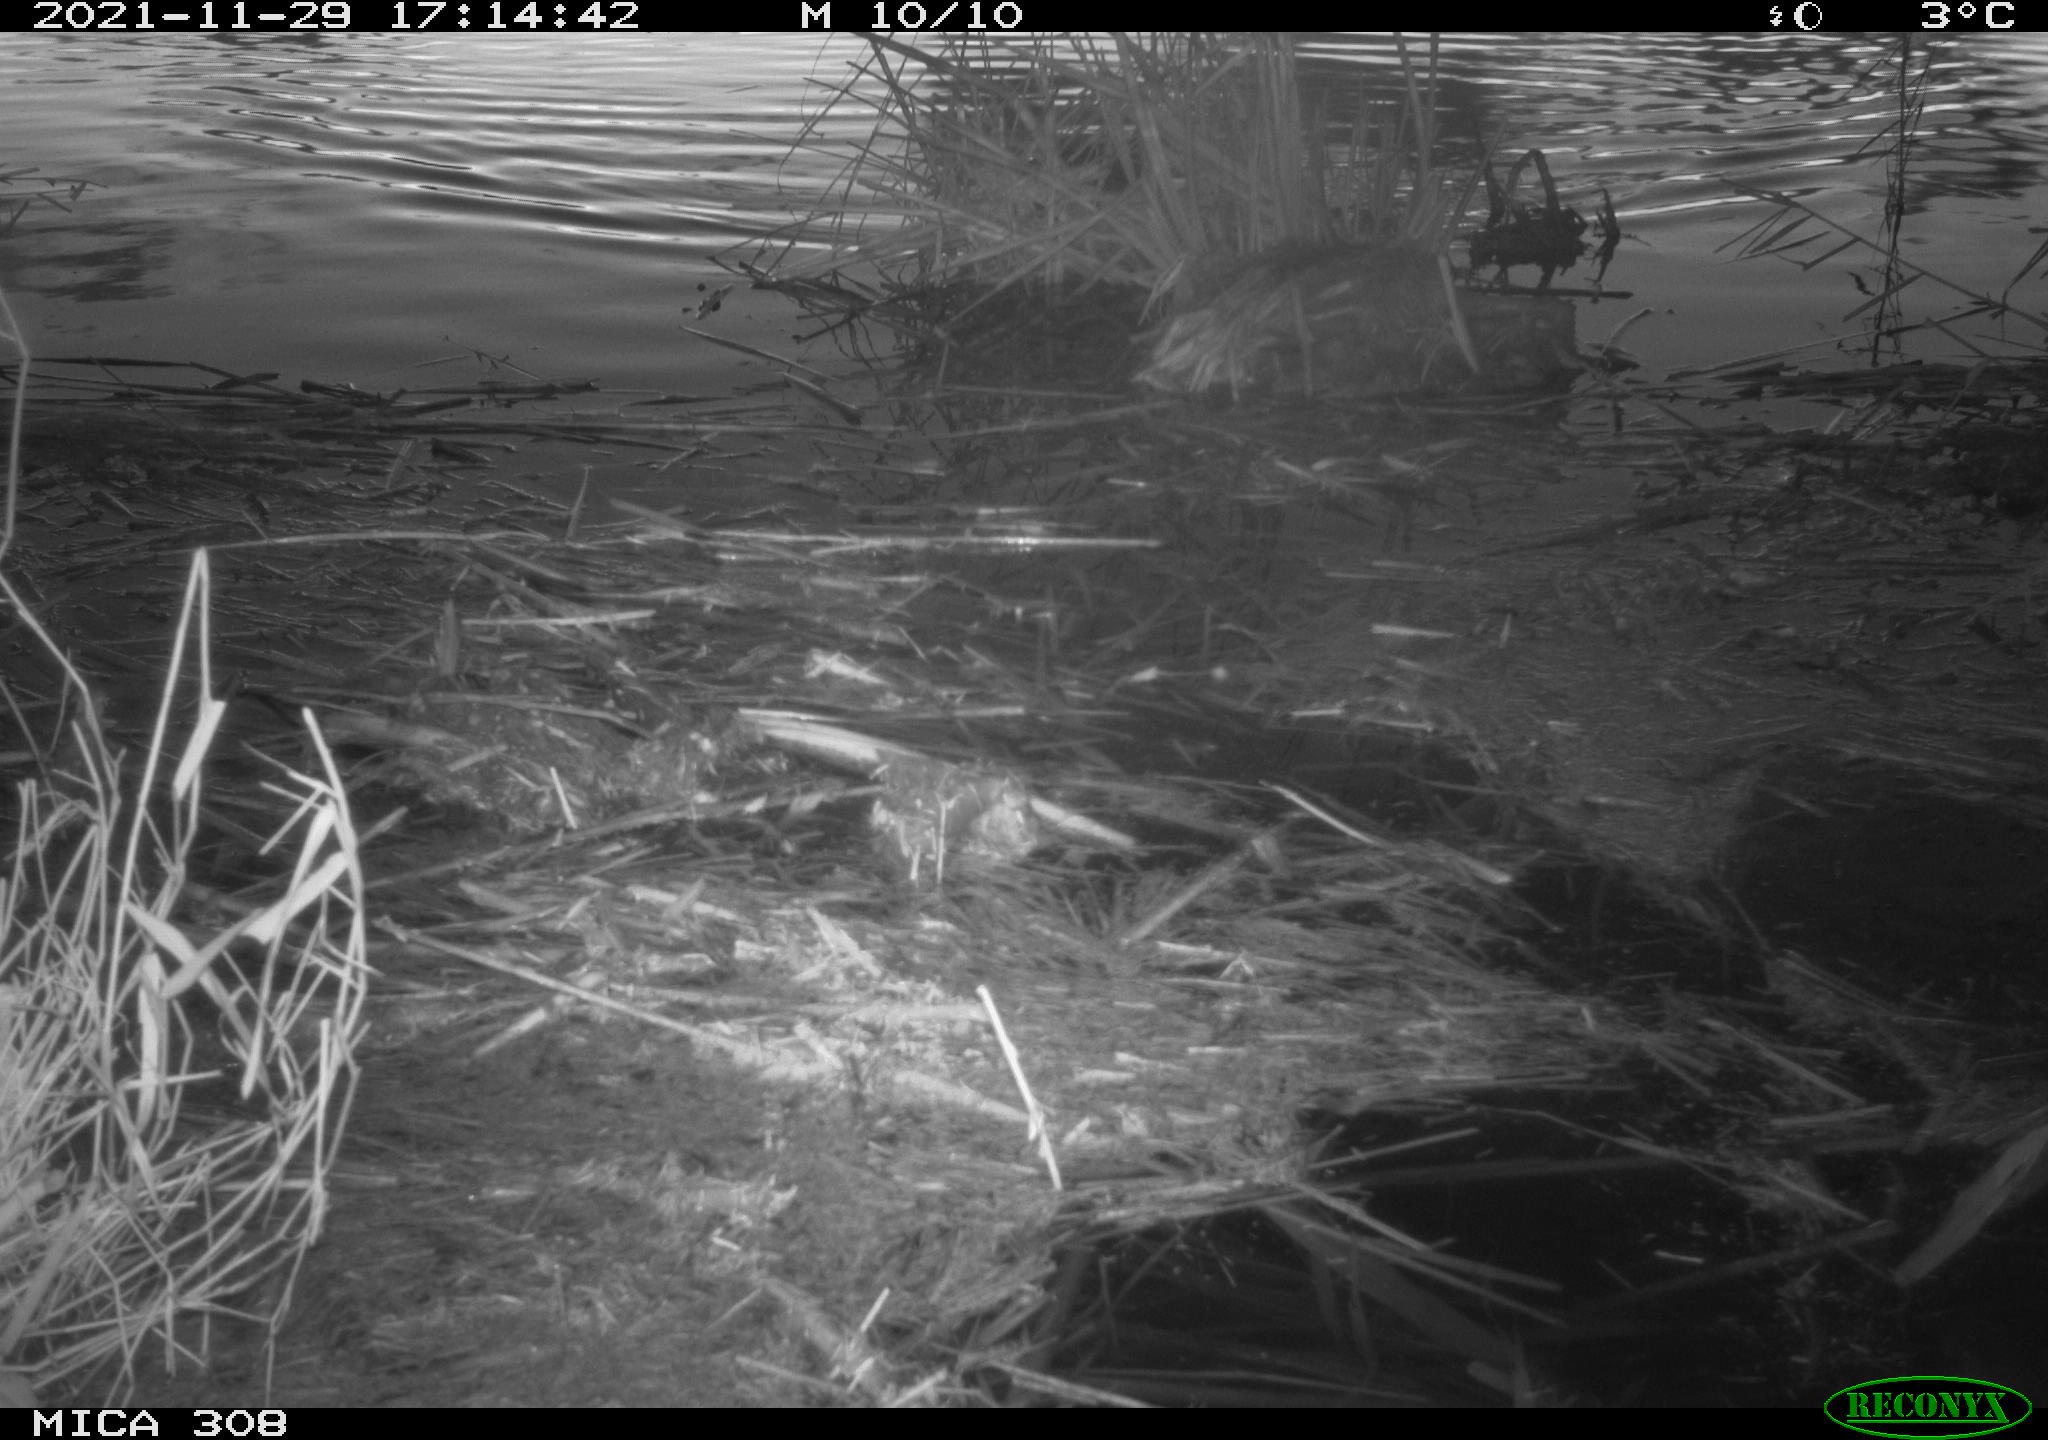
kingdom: Animalia
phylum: Chordata
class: Aves
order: Gruiformes
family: Rallidae
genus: Fulica
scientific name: Fulica atra
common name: Eurasian coot
